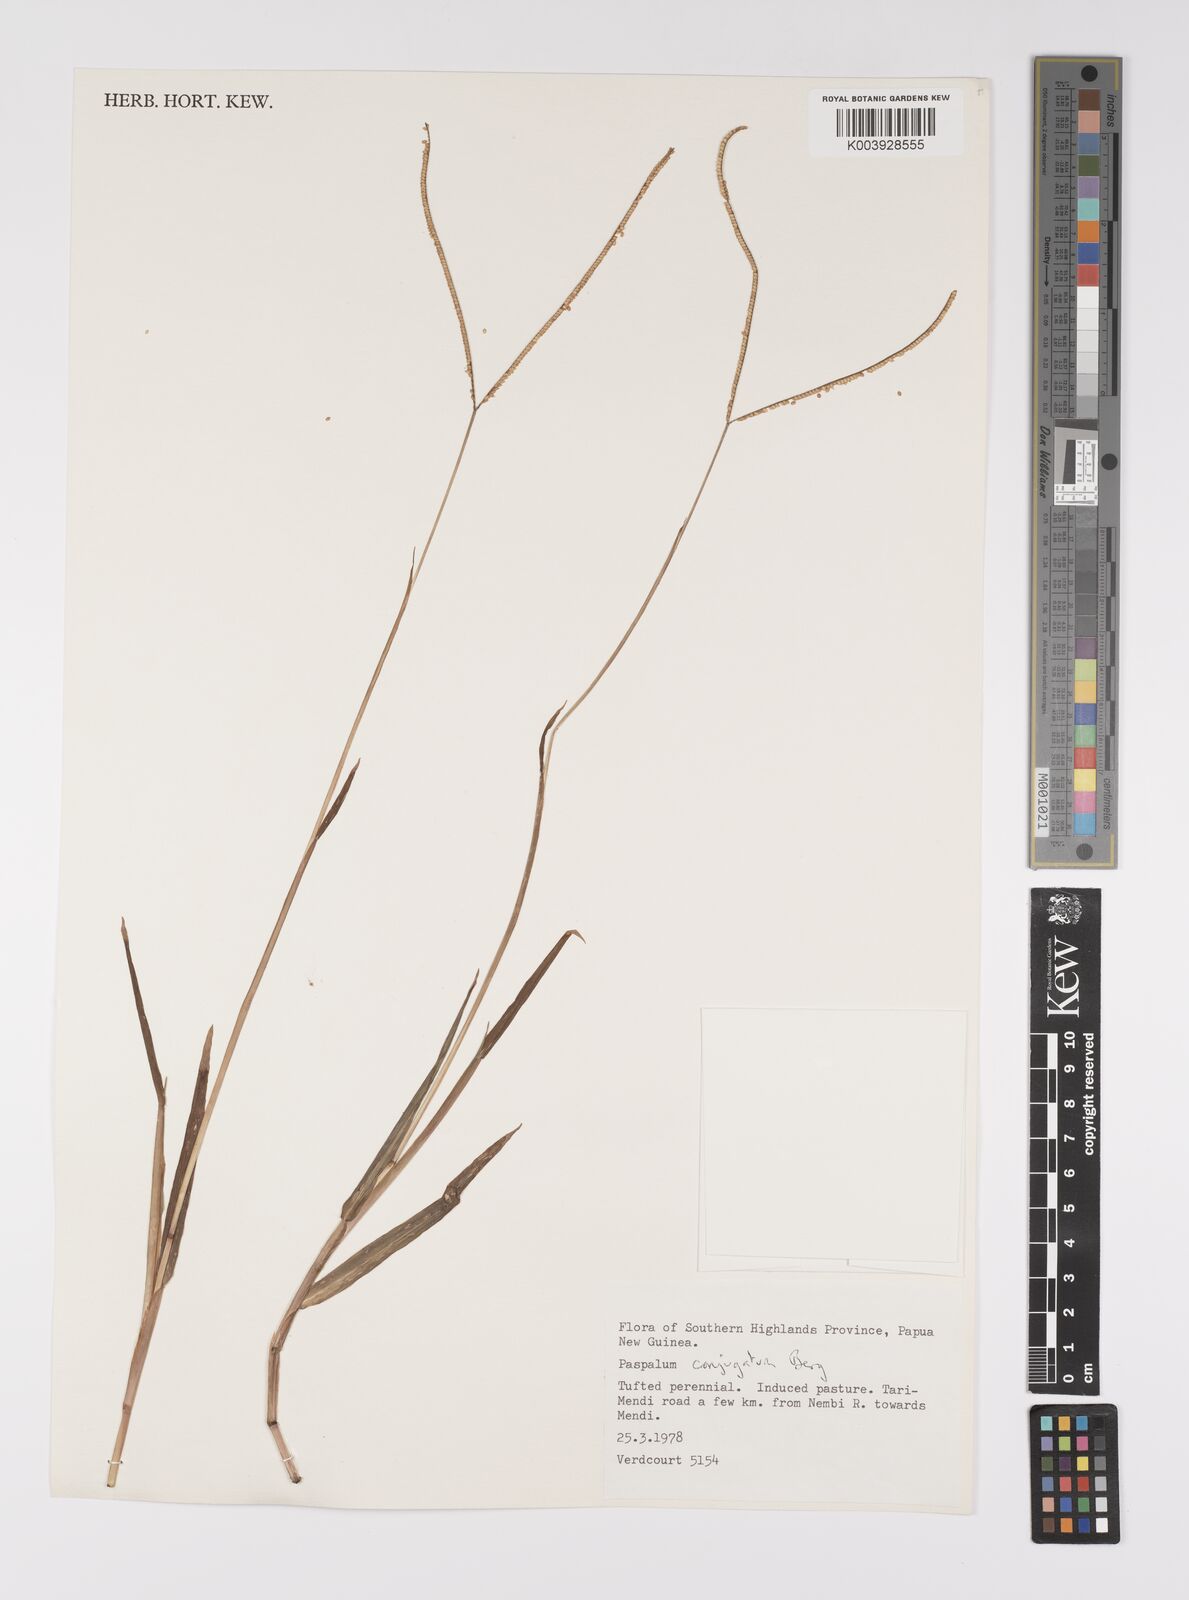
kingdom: Plantae
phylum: Tracheophyta
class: Liliopsida
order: Poales
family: Poaceae
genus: Paspalum
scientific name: Paspalum conjugatum
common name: Hilograss
